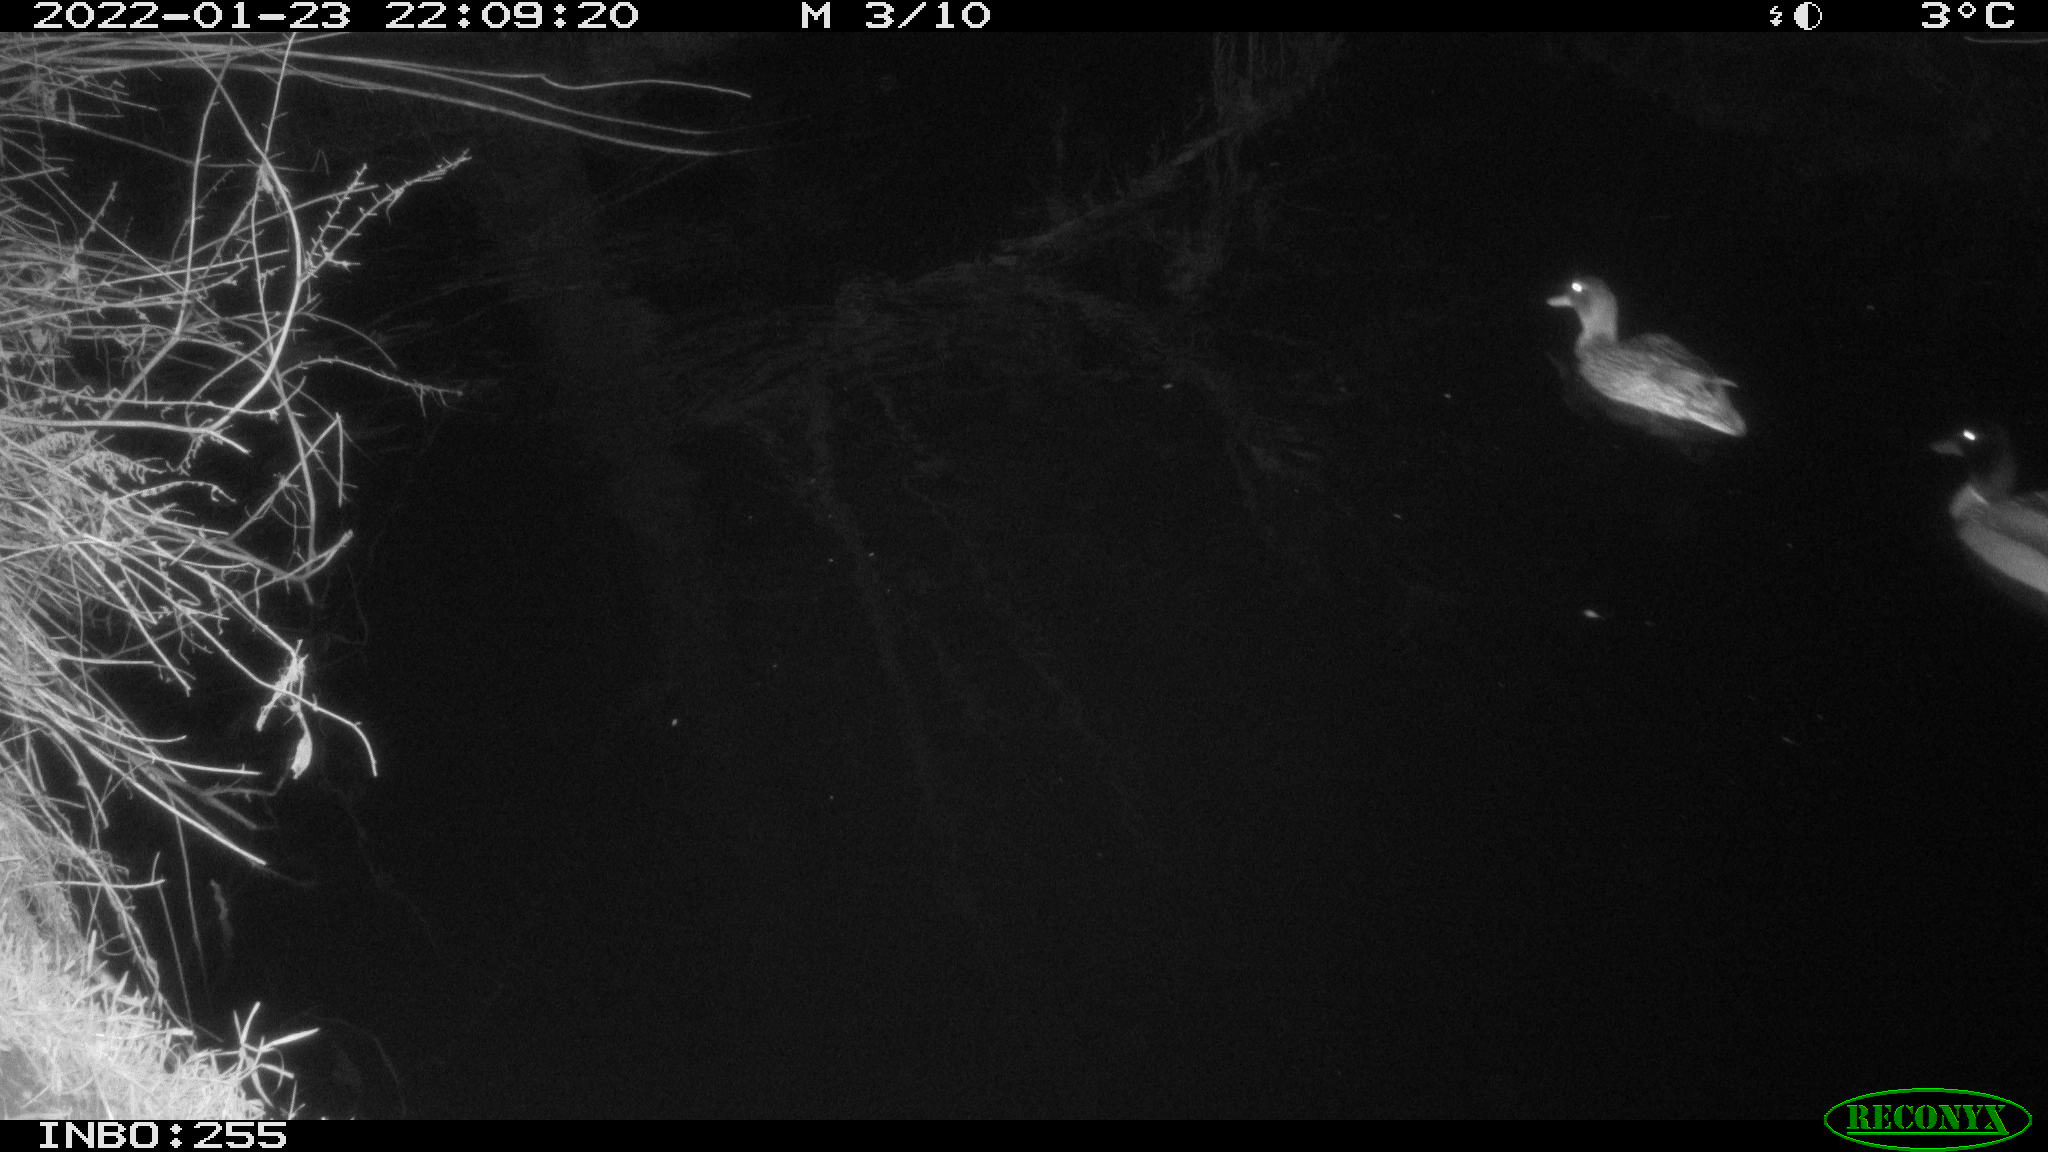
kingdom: Animalia
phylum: Chordata
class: Aves
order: Anseriformes
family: Anatidae
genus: Anas
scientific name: Anas
